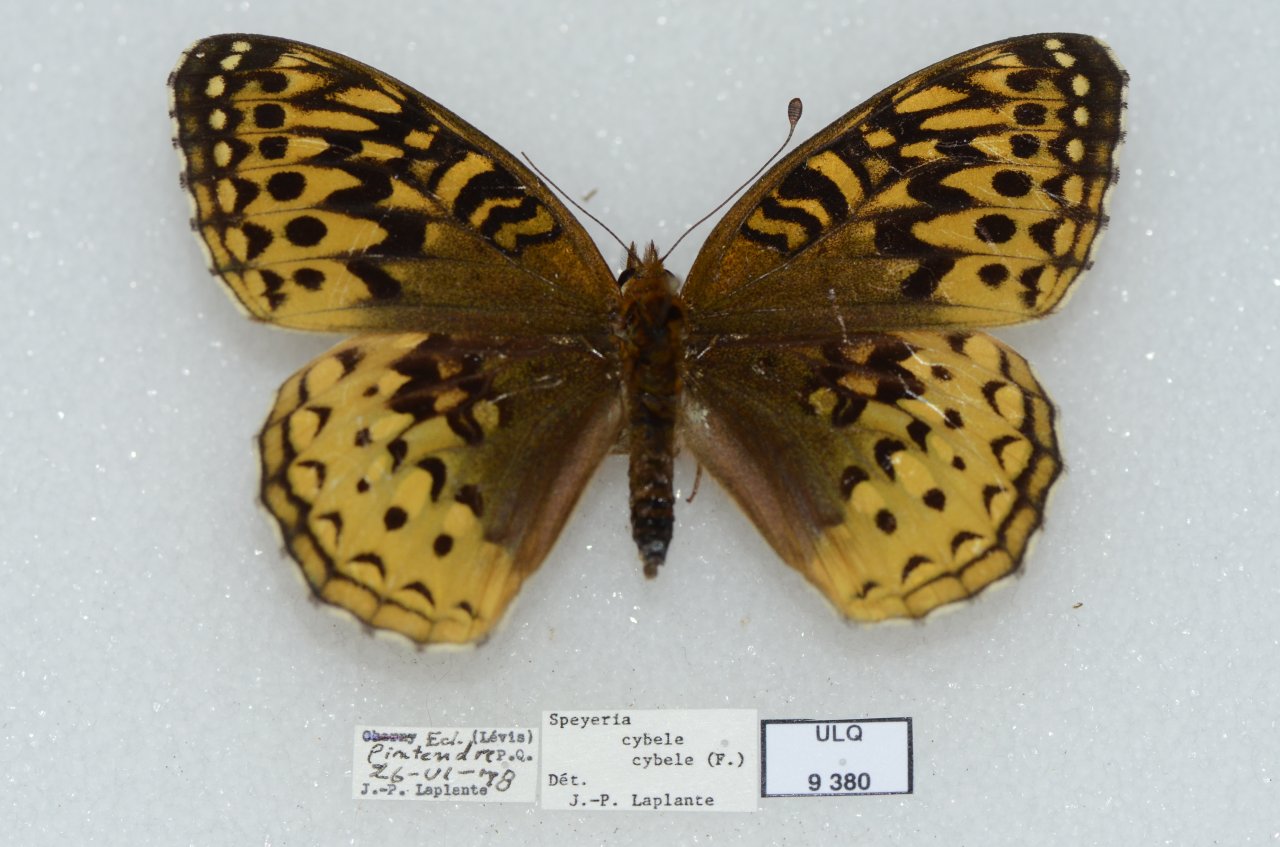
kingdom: Animalia
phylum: Arthropoda
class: Insecta
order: Lepidoptera
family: Nymphalidae
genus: Speyeria
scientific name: Speyeria cybele
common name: Great Spangled Fritillary
